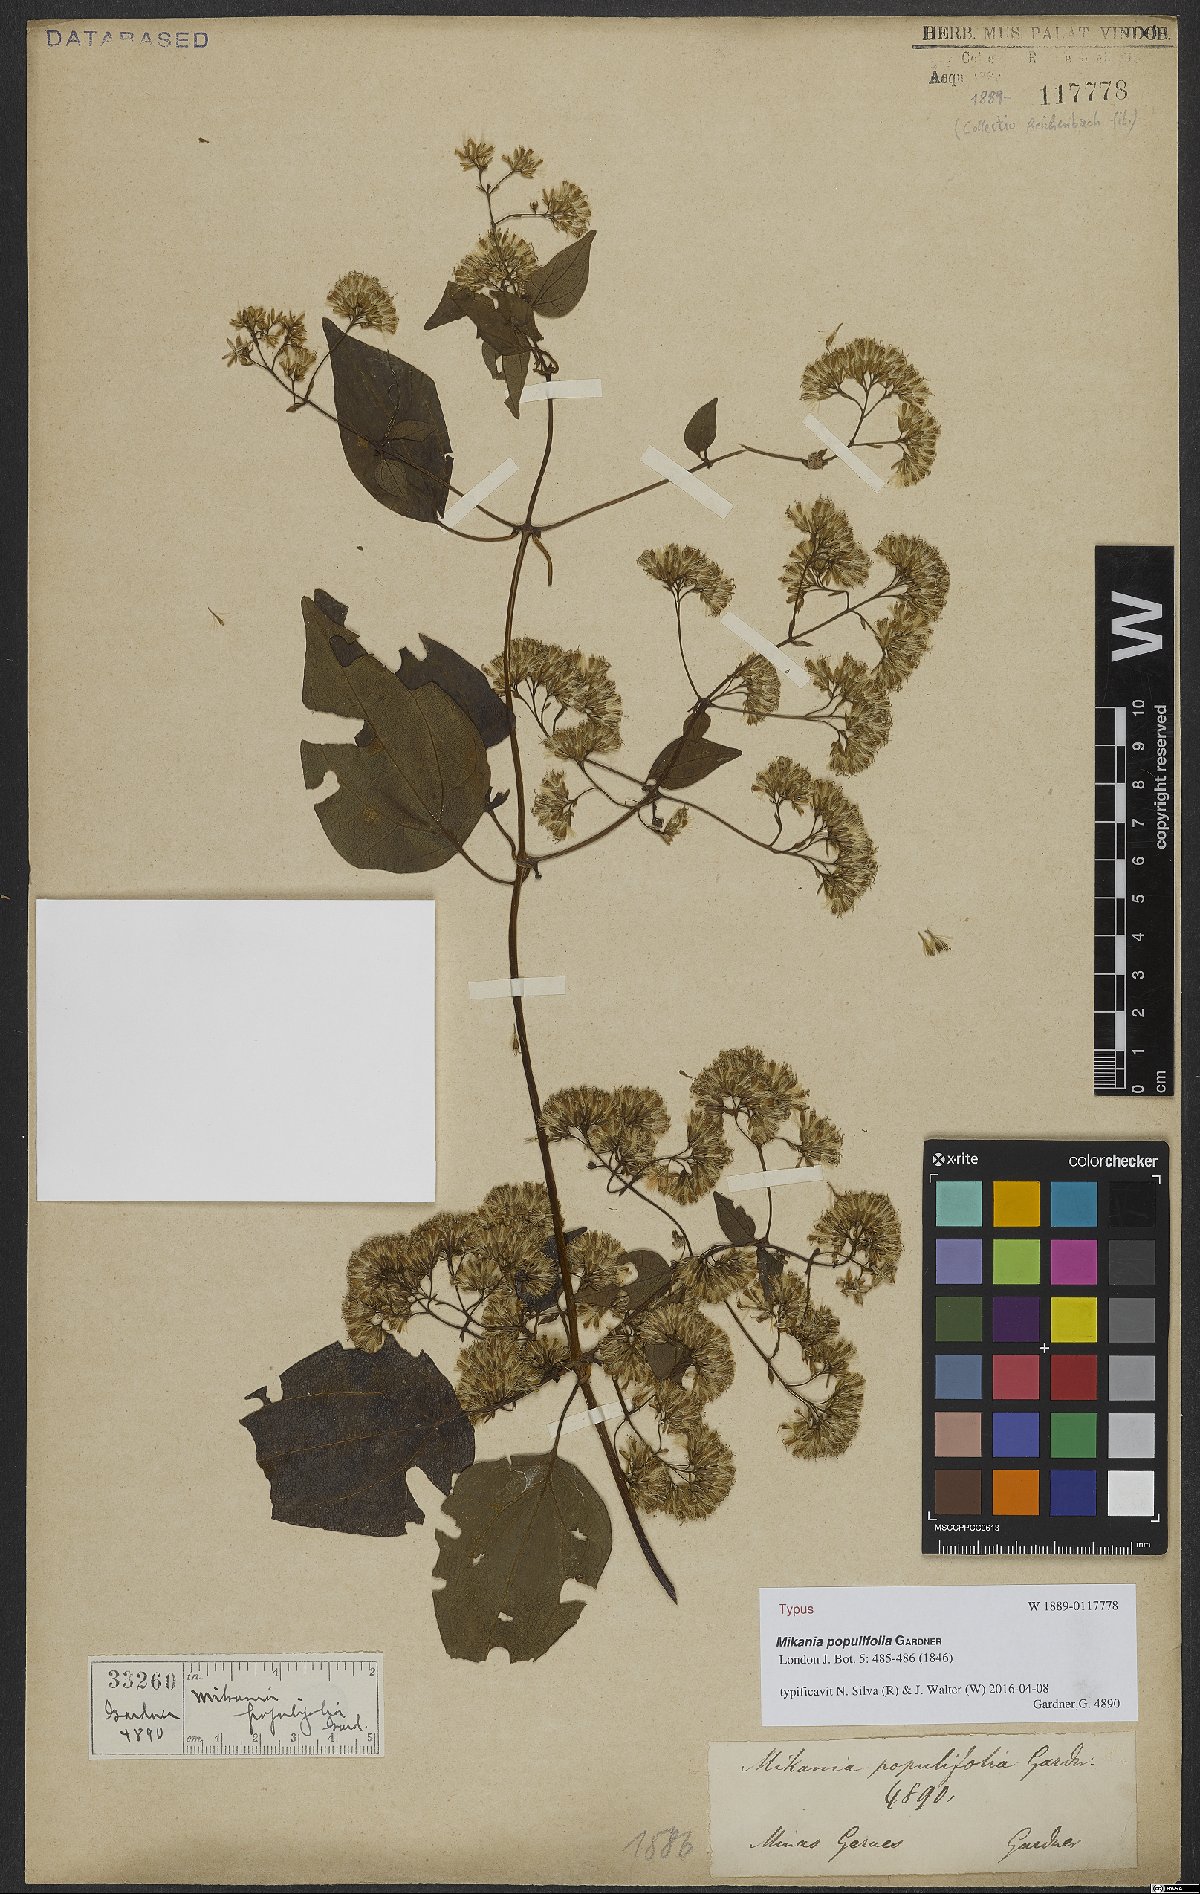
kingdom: Plantae
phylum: Tracheophyta
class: Magnoliopsida
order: Asterales
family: Asteraceae
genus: Mikania
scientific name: Mikania populifolia
